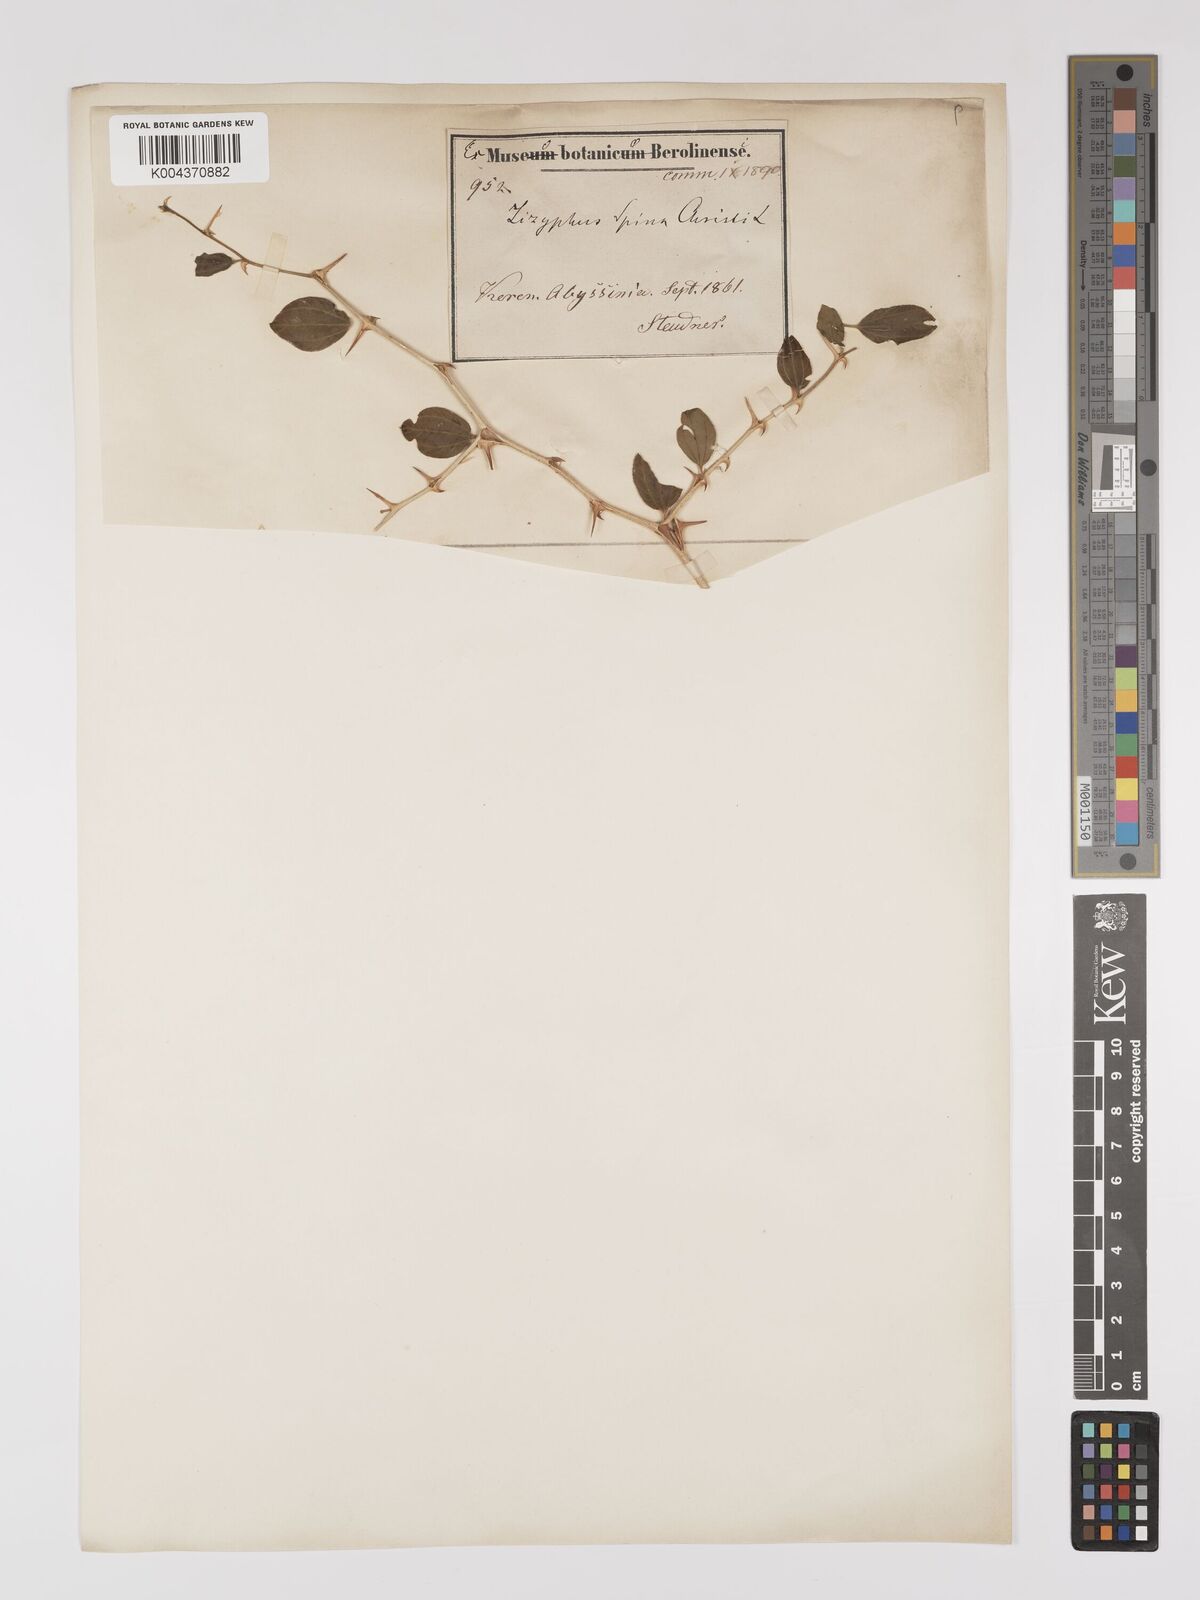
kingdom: Plantae
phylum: Tracheophyta
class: Magnoliopsida
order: Rosales
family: Rhamnaceae
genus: Ziziphus
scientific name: Ziziphus spina-christi
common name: Syrian christ-thorn
